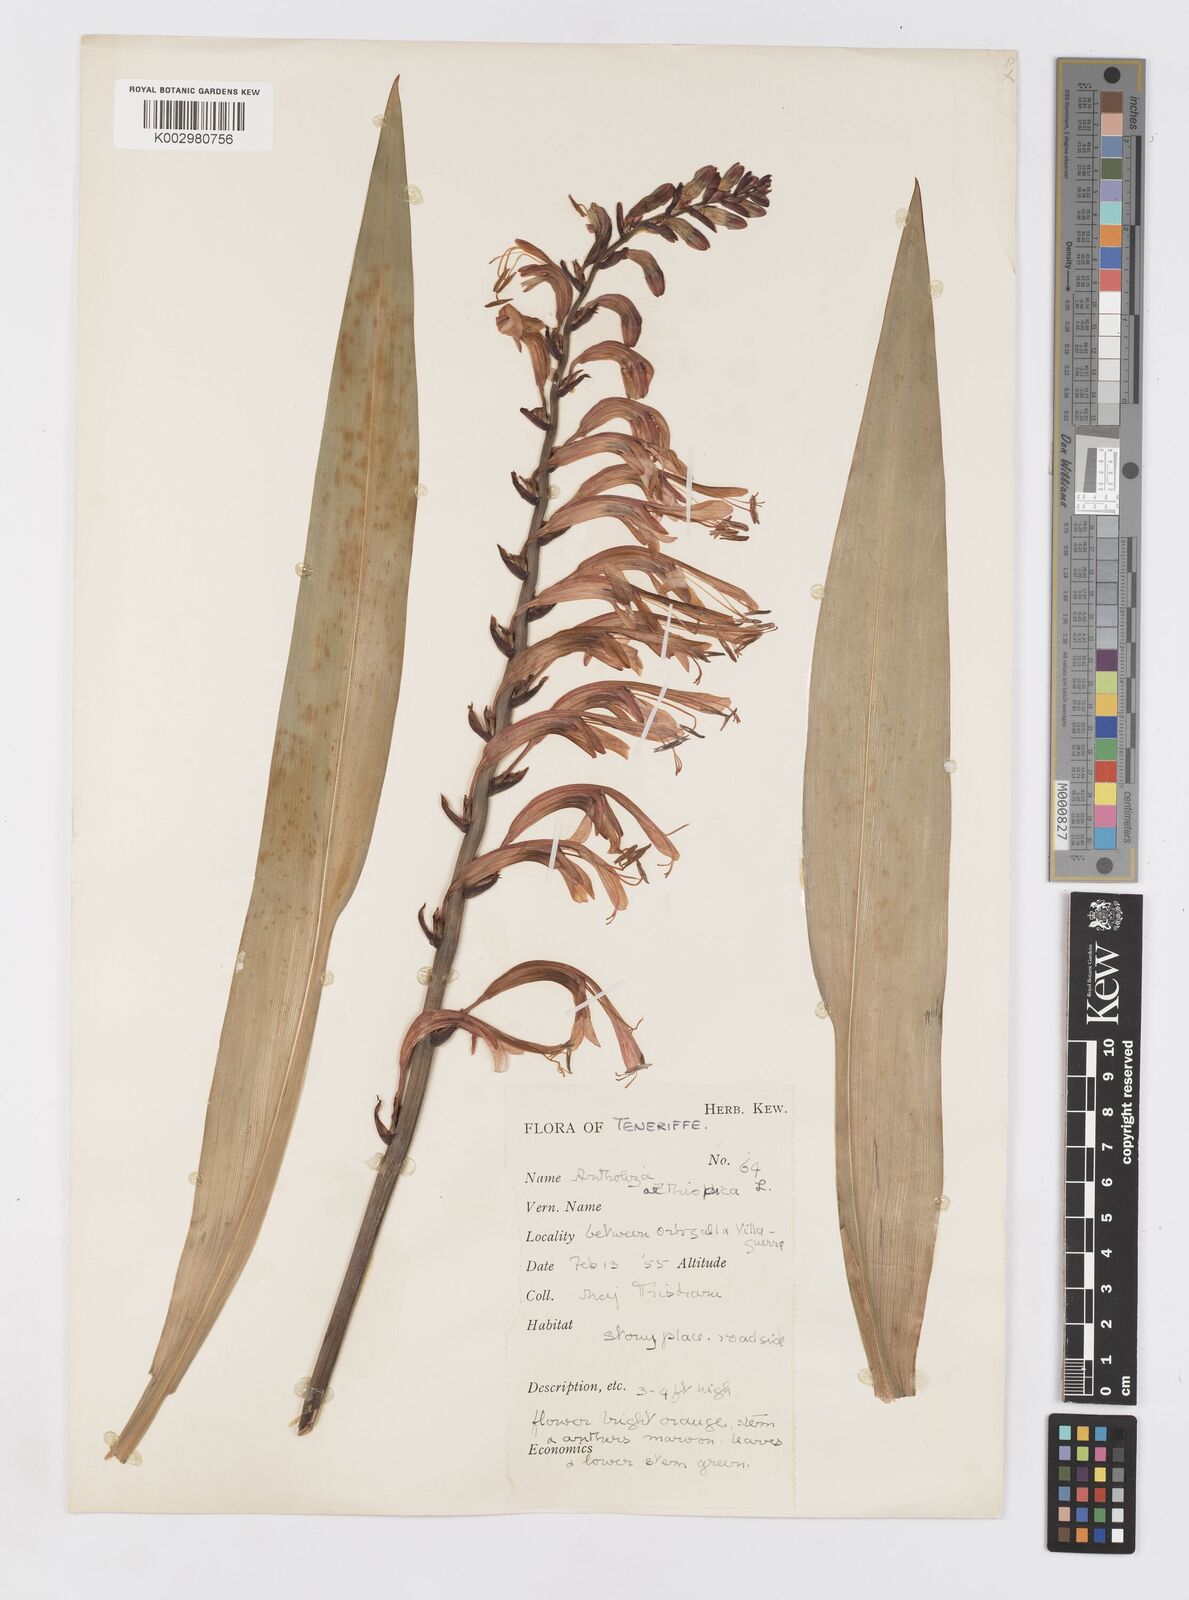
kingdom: Plantae
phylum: Tracheophyta
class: Liliopsida
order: Asparagales
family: Iridaceae
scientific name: Iridaceae
